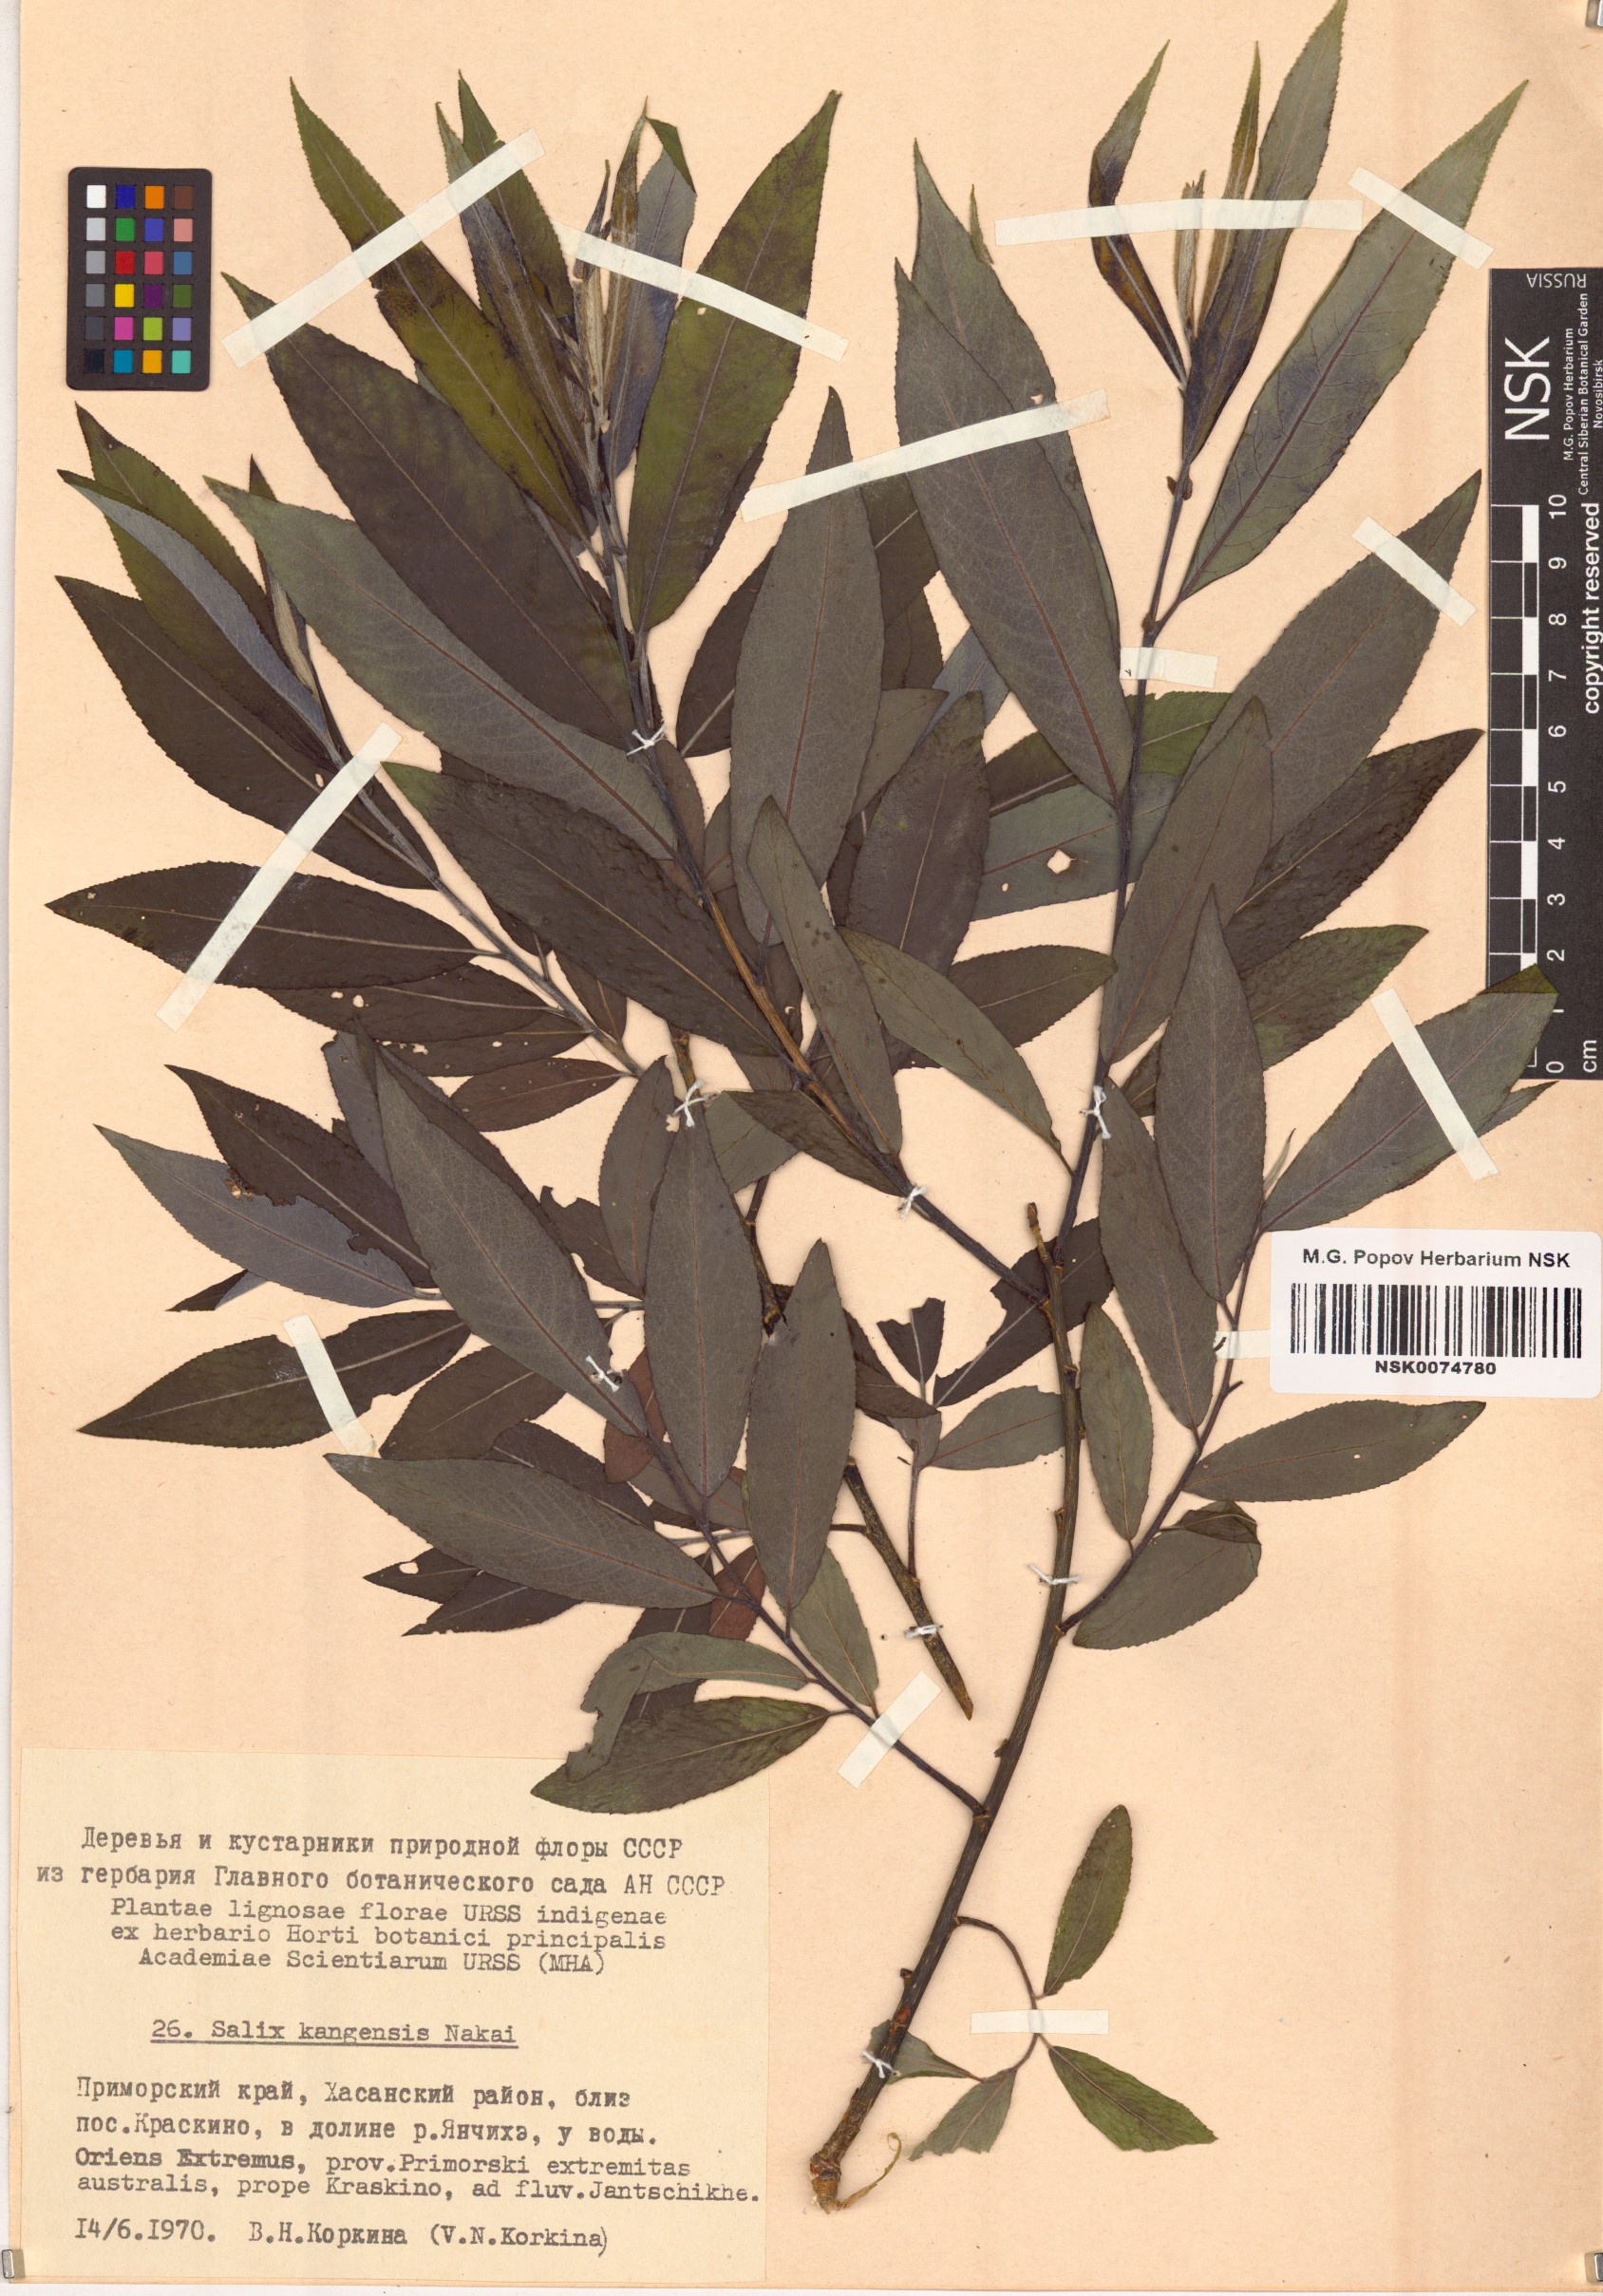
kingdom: Plantae
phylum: Tracheophyta
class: Magnoliopsida
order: Malpighiales
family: Salicaceae
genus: Salix
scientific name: Salix kangensis
